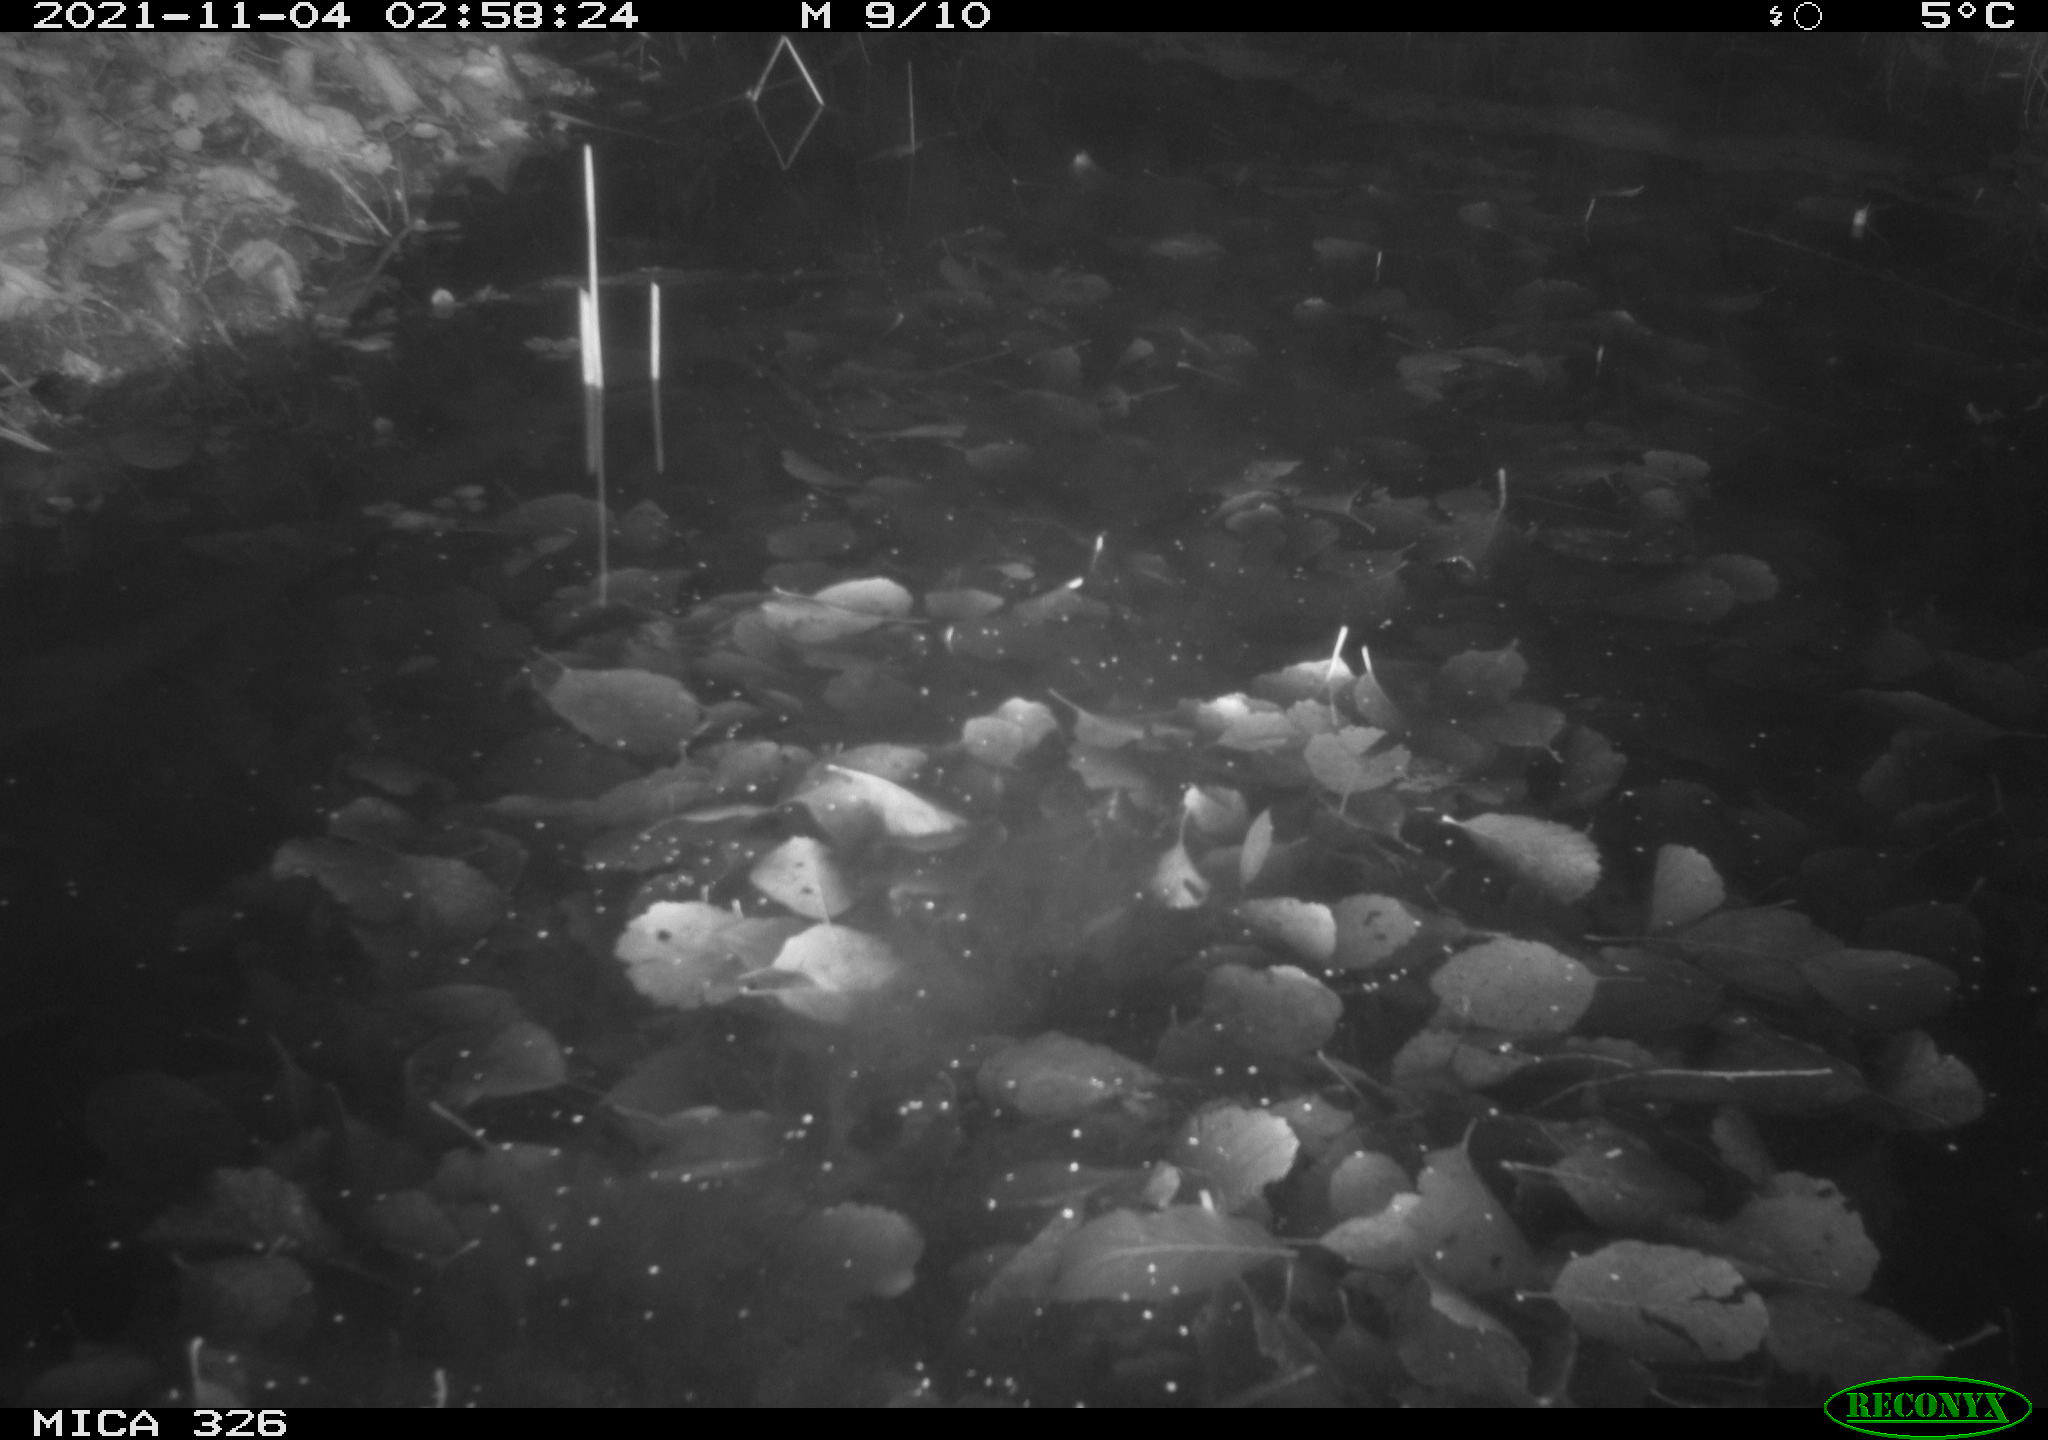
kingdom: Animalia
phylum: Chordata
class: Mammalia
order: Rodentia
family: Myocastoridae
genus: Myocastor
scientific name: Myocastor coypus
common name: Coypu
